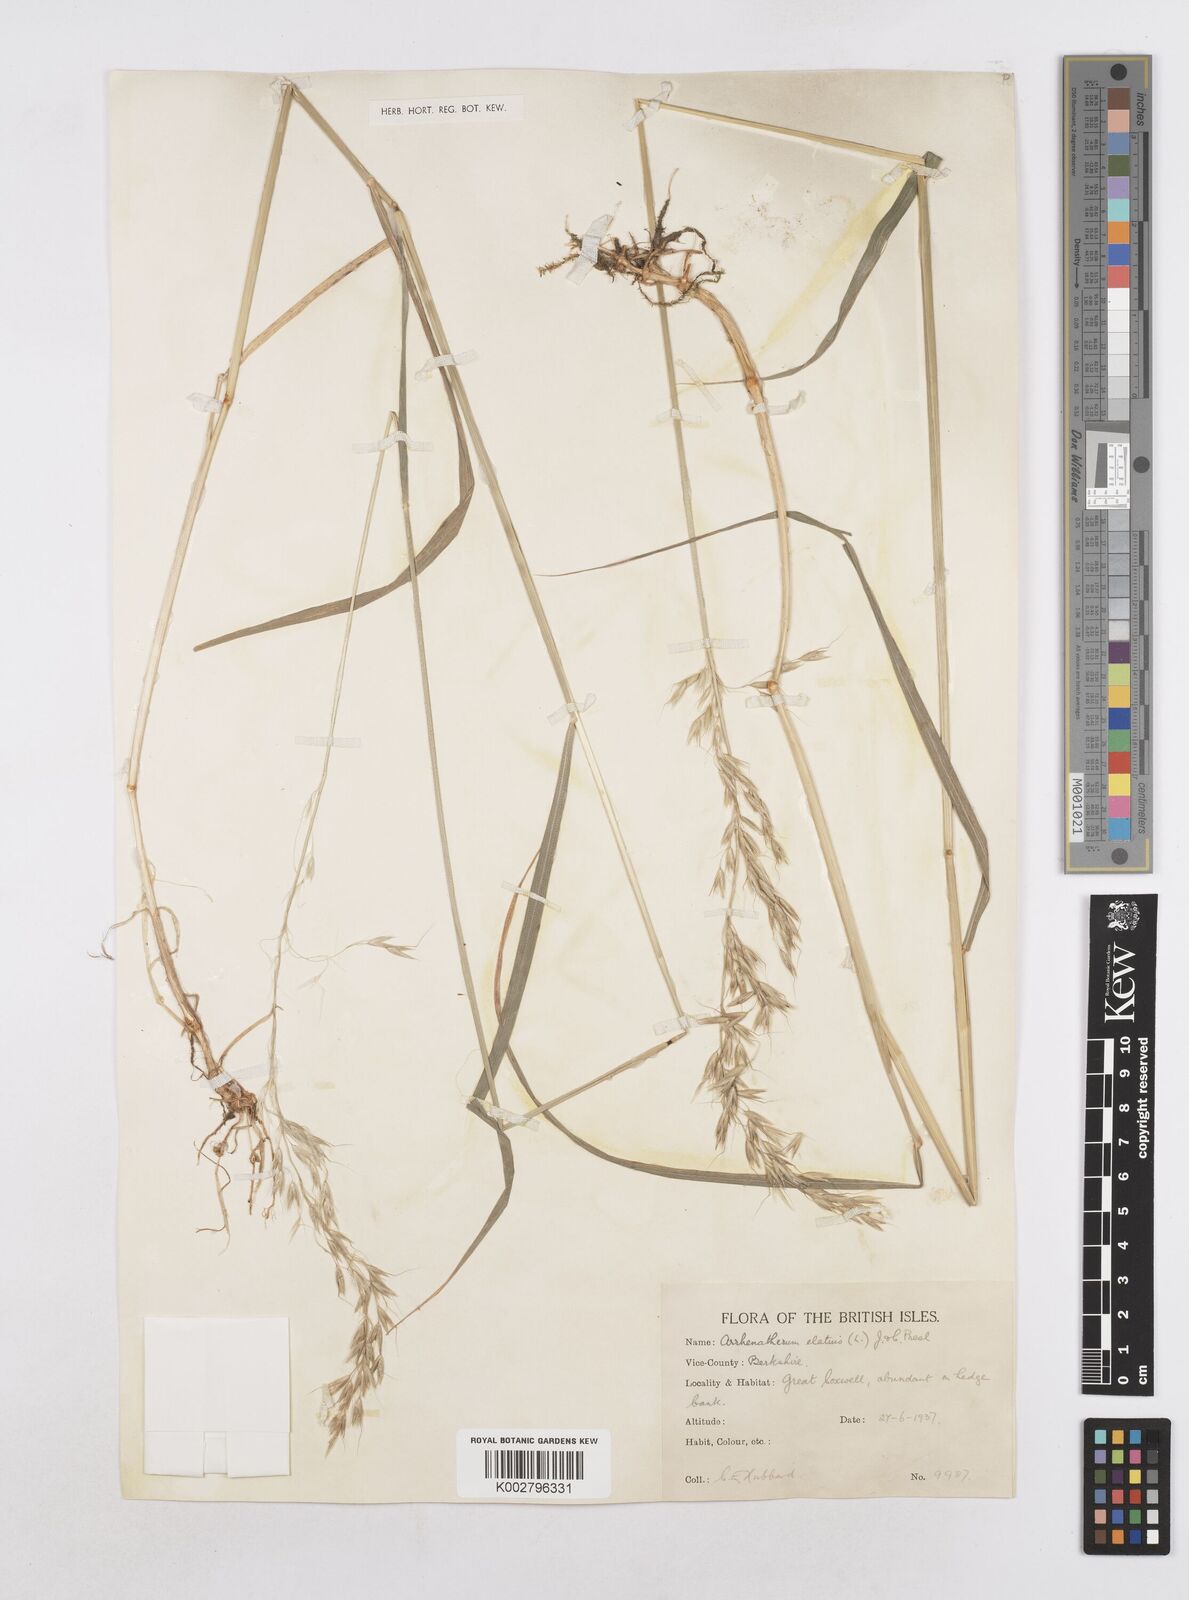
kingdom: Plantae
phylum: Tracheophyta
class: Liliopsida
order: Poales
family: Poaceae
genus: Arrhenatherum
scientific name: Arrhenatherum elatius
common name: Tall oatgrass
